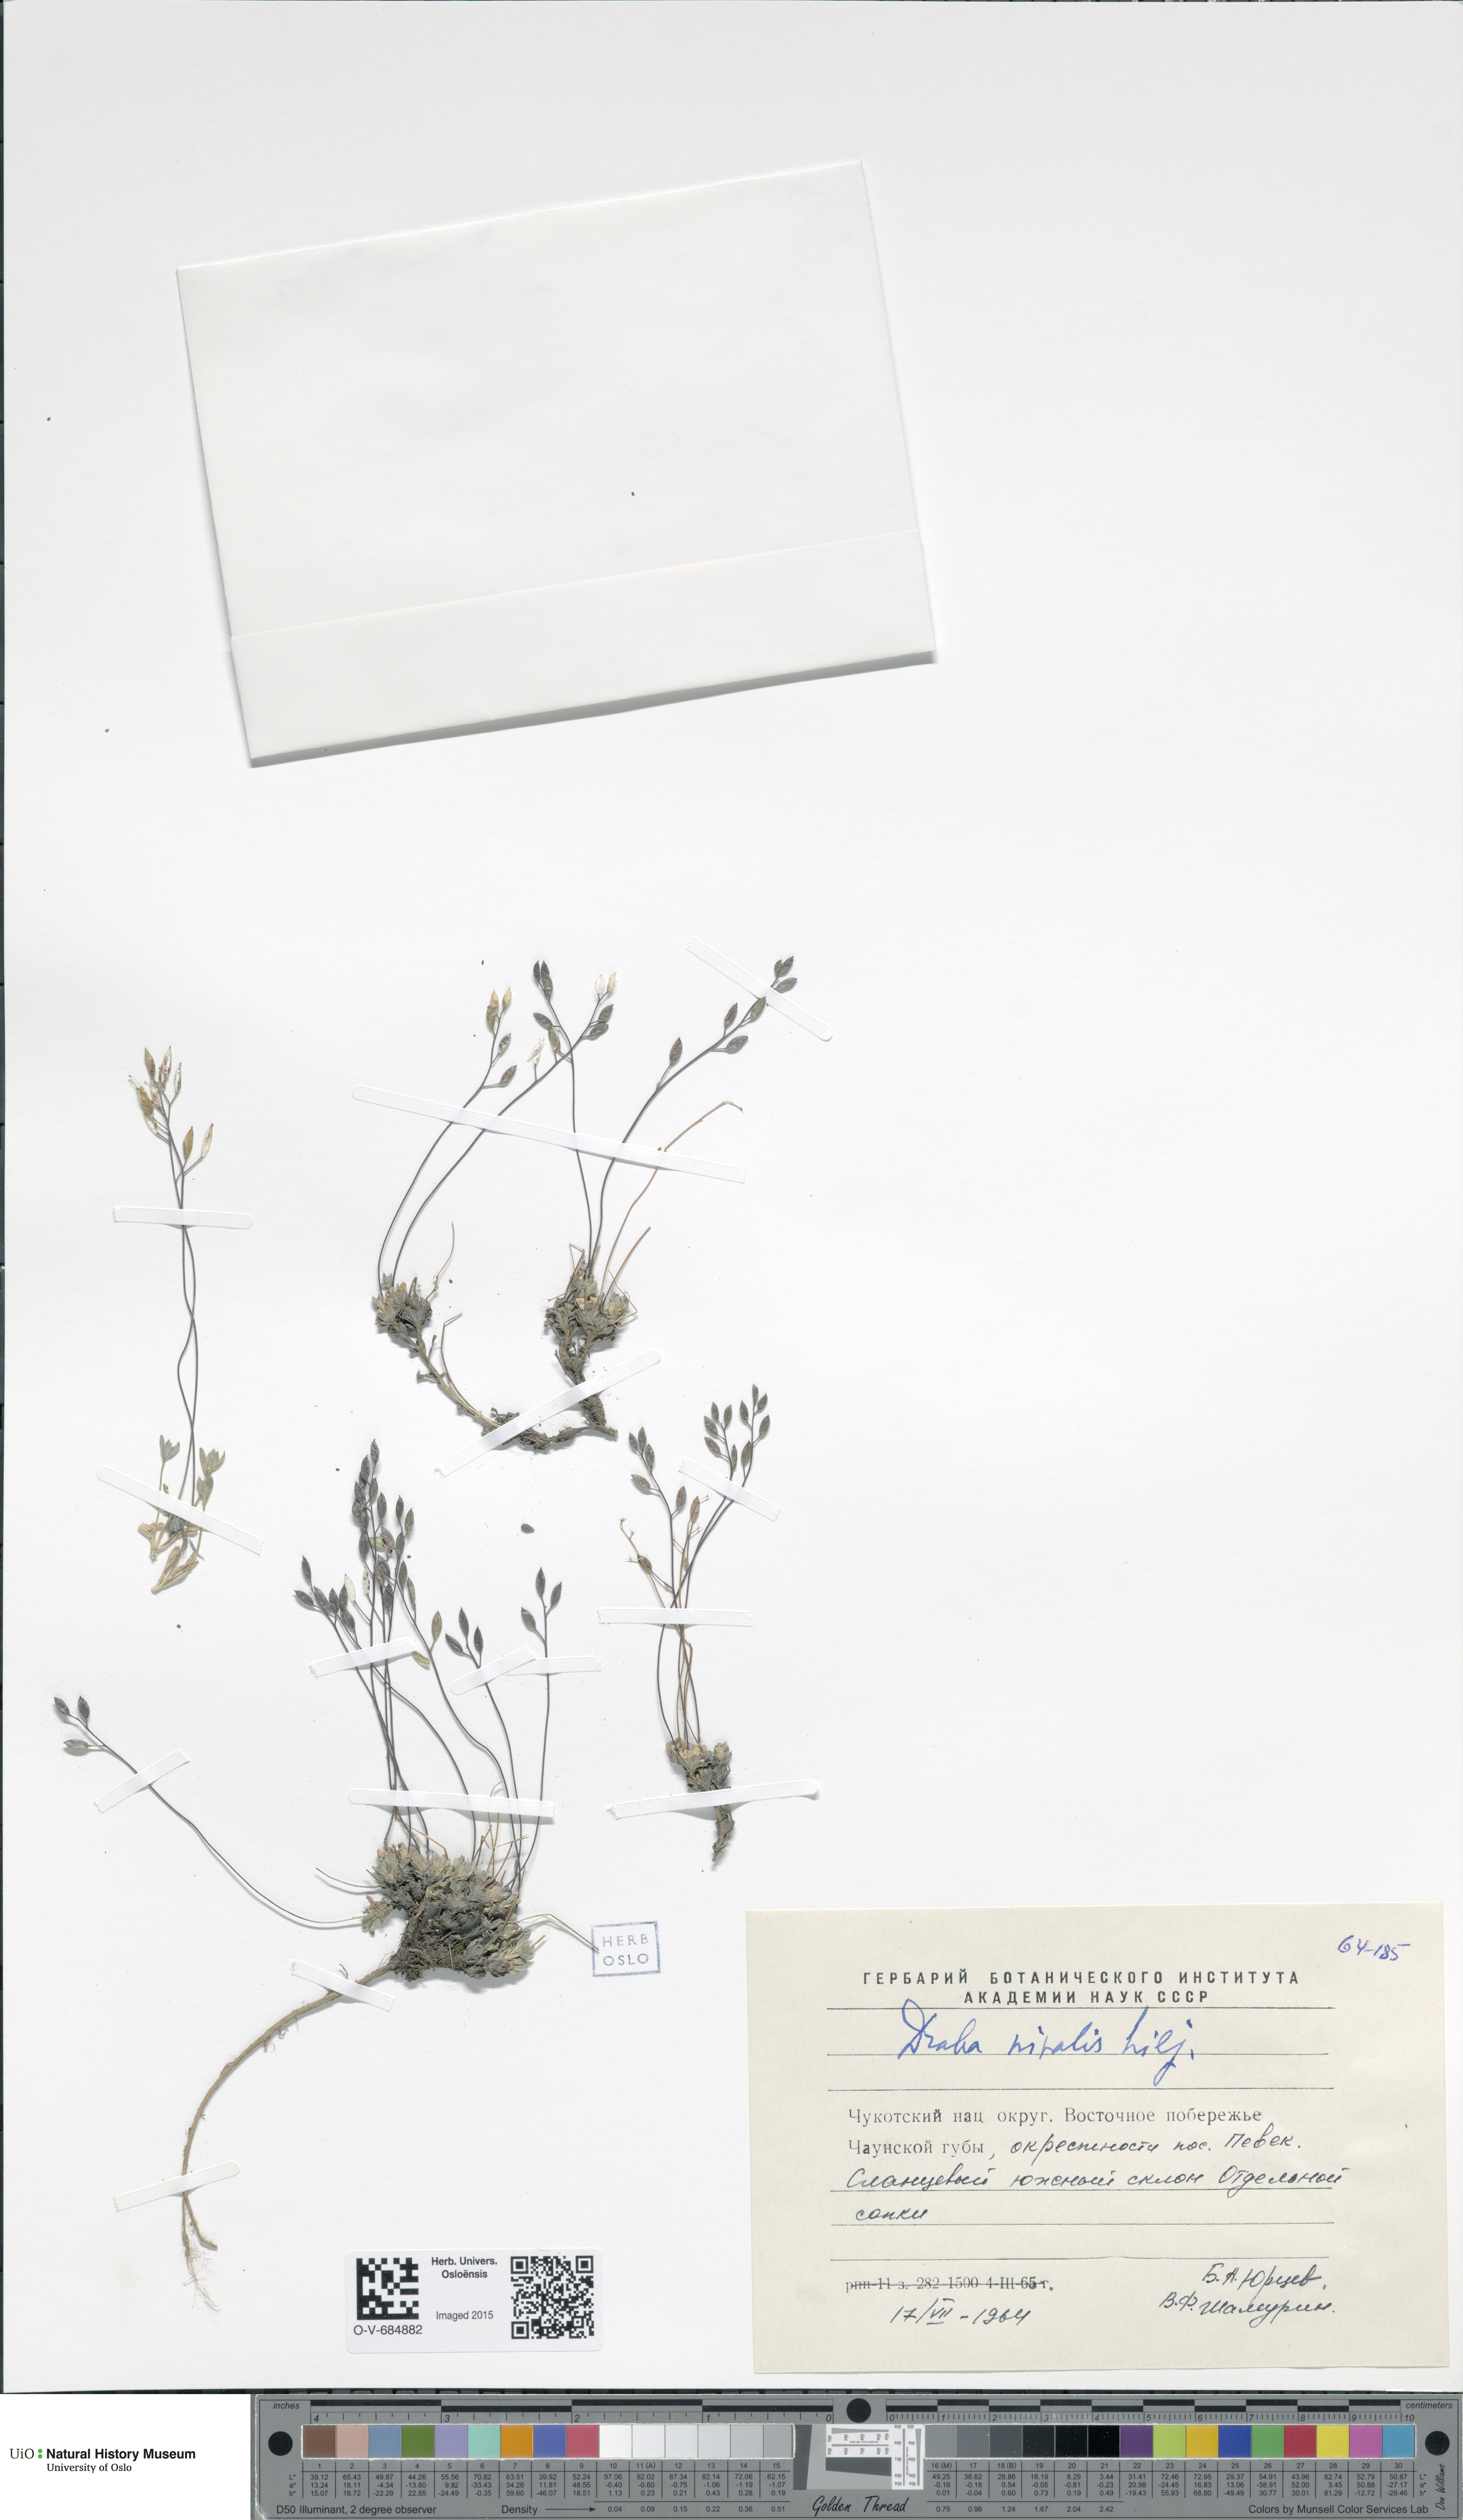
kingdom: Plantae
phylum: Tracheophyta
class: Magnoliopsida
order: Brassicales
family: Brassicaceae
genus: Draba
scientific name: Draba nivalis
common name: Snow draba
